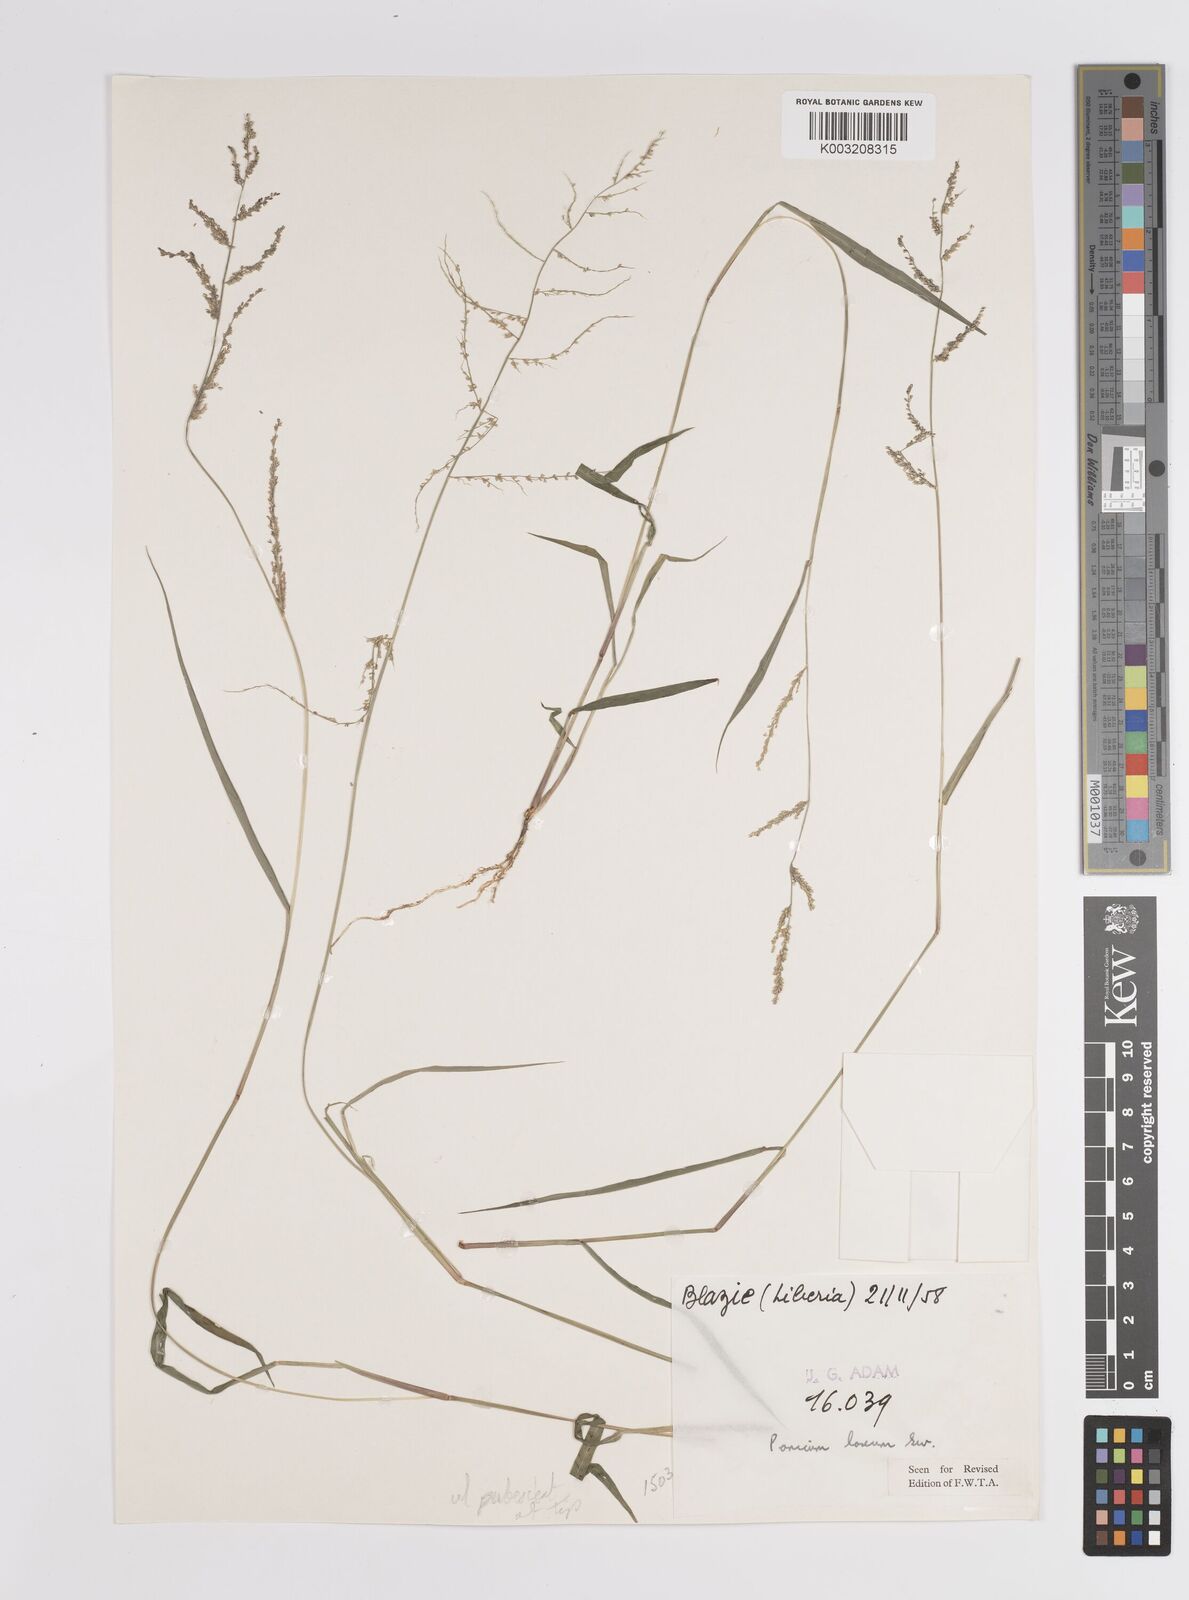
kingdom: Plantae
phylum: Tracheophyta
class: Liliopsida
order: Poales
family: Poaceae
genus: Steinchisma
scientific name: Steinchisma laxum
